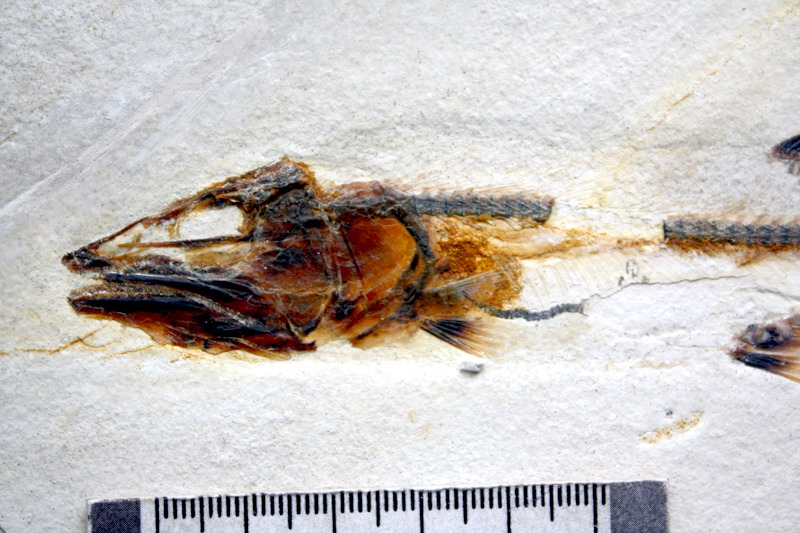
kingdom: Animalia
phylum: Chordata
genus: Bavarichthys
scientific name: Bavarichthys incognitus
